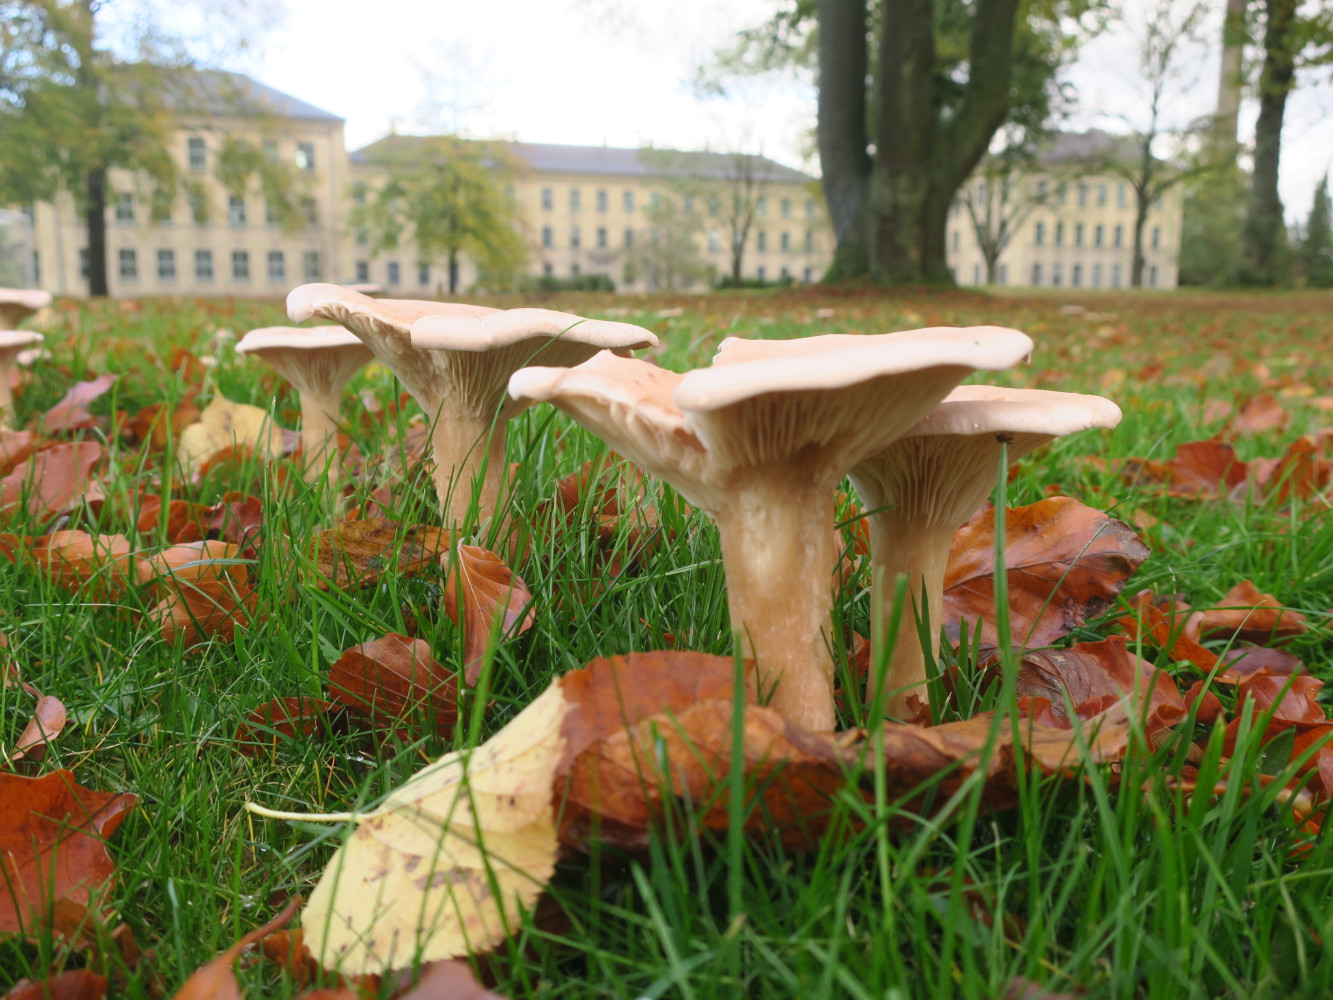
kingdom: Fungi
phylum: Basidiomycota
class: Agaricomycetes
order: Agaricales
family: Tricholomataceae
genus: Infundibulicybe
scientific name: Infundibulicybe geotropa
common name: stor tragthat
